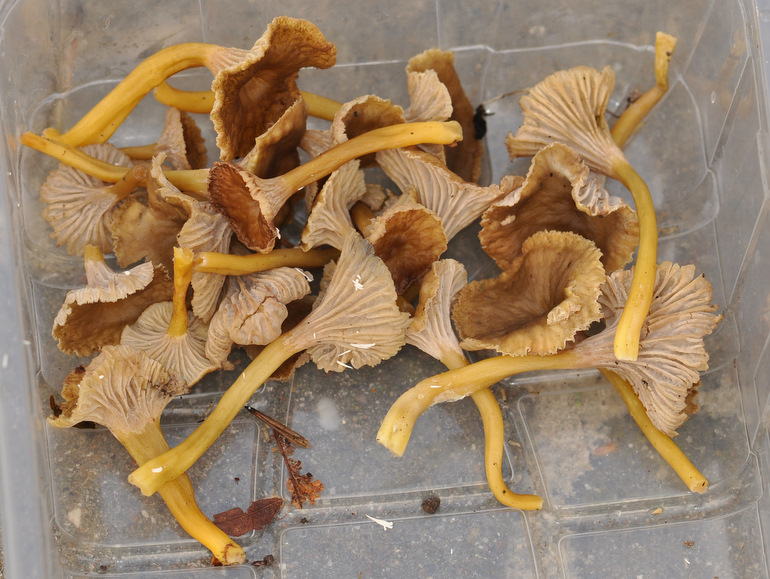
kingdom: Fungi
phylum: Basidiomycota
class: Agaricomycetes
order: Cantharellales
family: Hydnaceae
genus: Craterellus
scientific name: Craterellus tubaeformis
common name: tragt-kantarel
